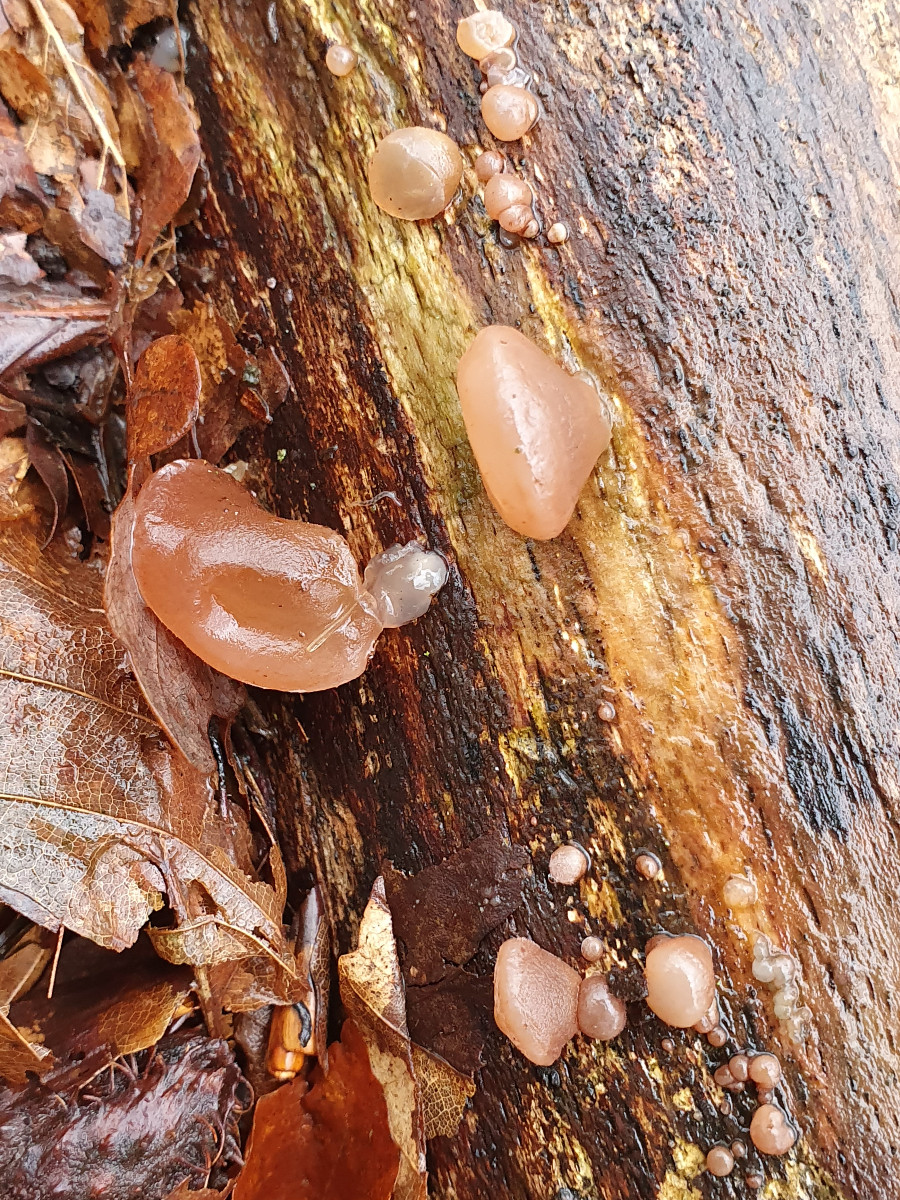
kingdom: Fungi
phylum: Ascomycota
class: Leotiomycetes
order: Helotiales
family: Gelatinodiscaceae
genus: Neobulgaria
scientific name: Neobulgaria pura
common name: bleg bævreskive
